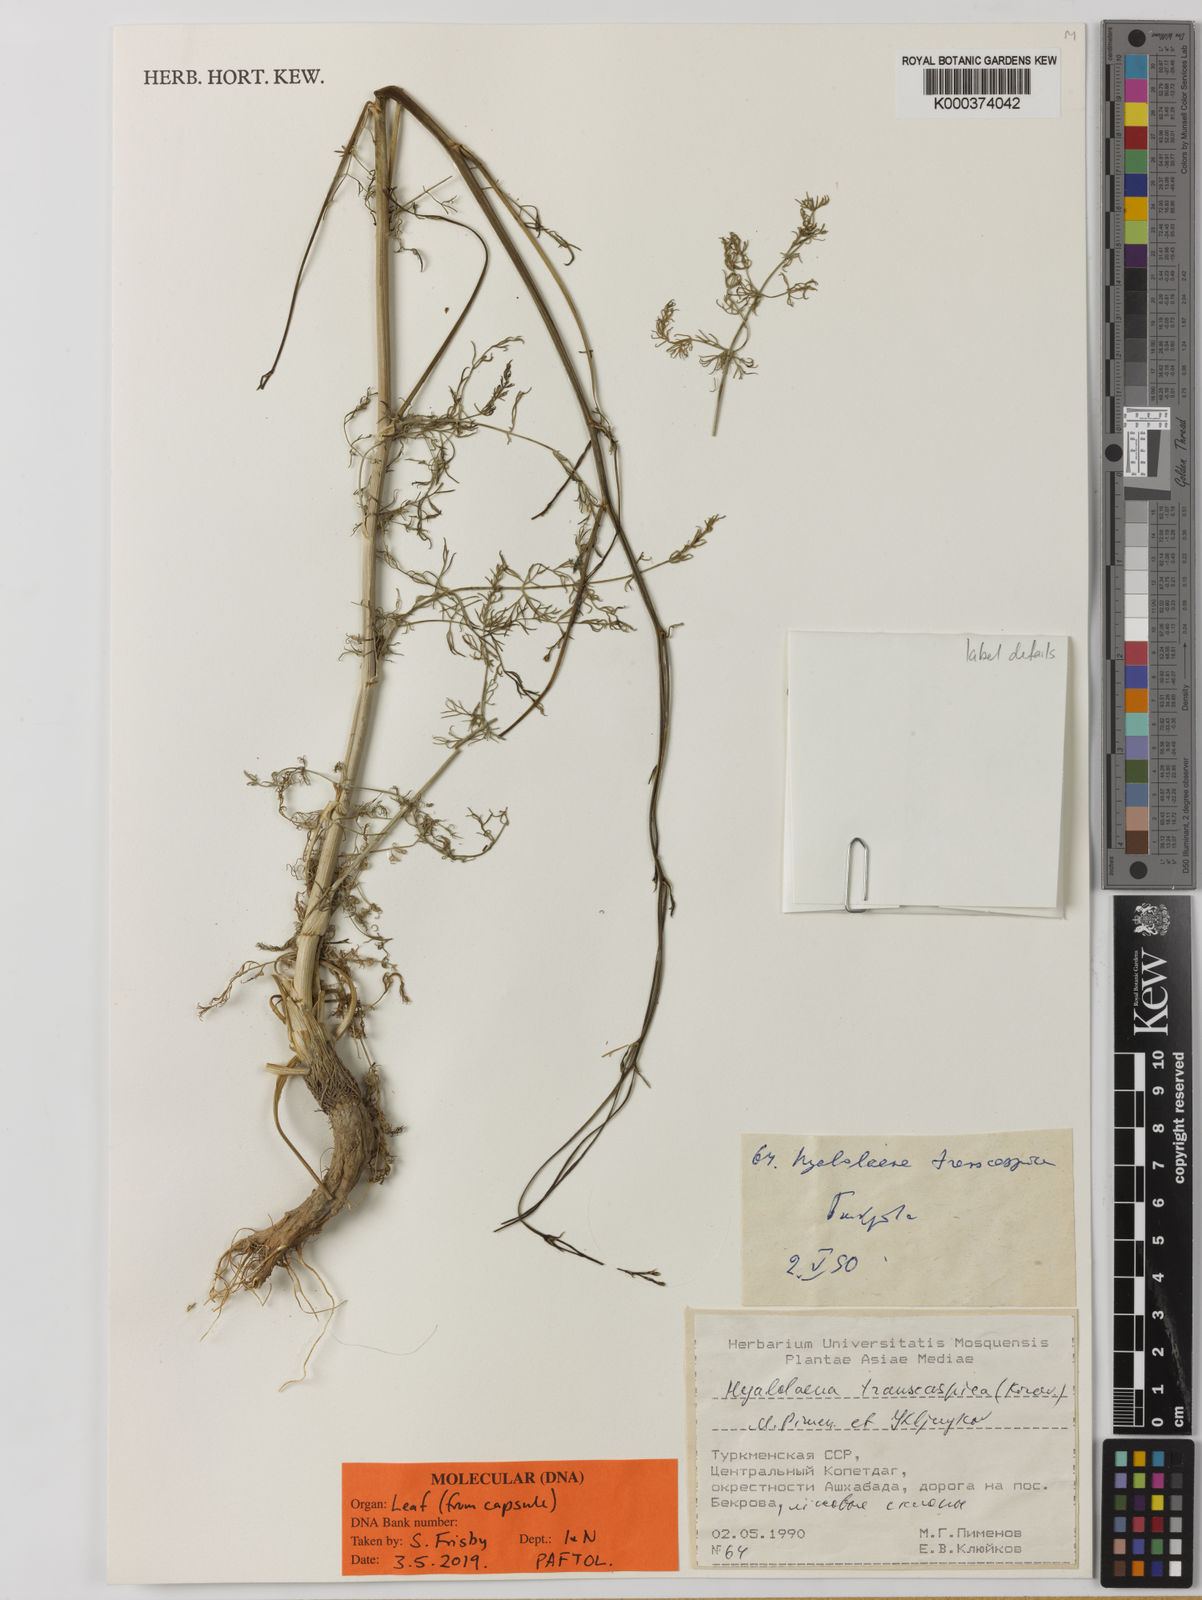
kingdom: Plantae
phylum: Tracheophyta
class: Magnoliopsida
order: Apiales
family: Apiaceae
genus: Hyalolaena
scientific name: Hyalolaena transcaspica
